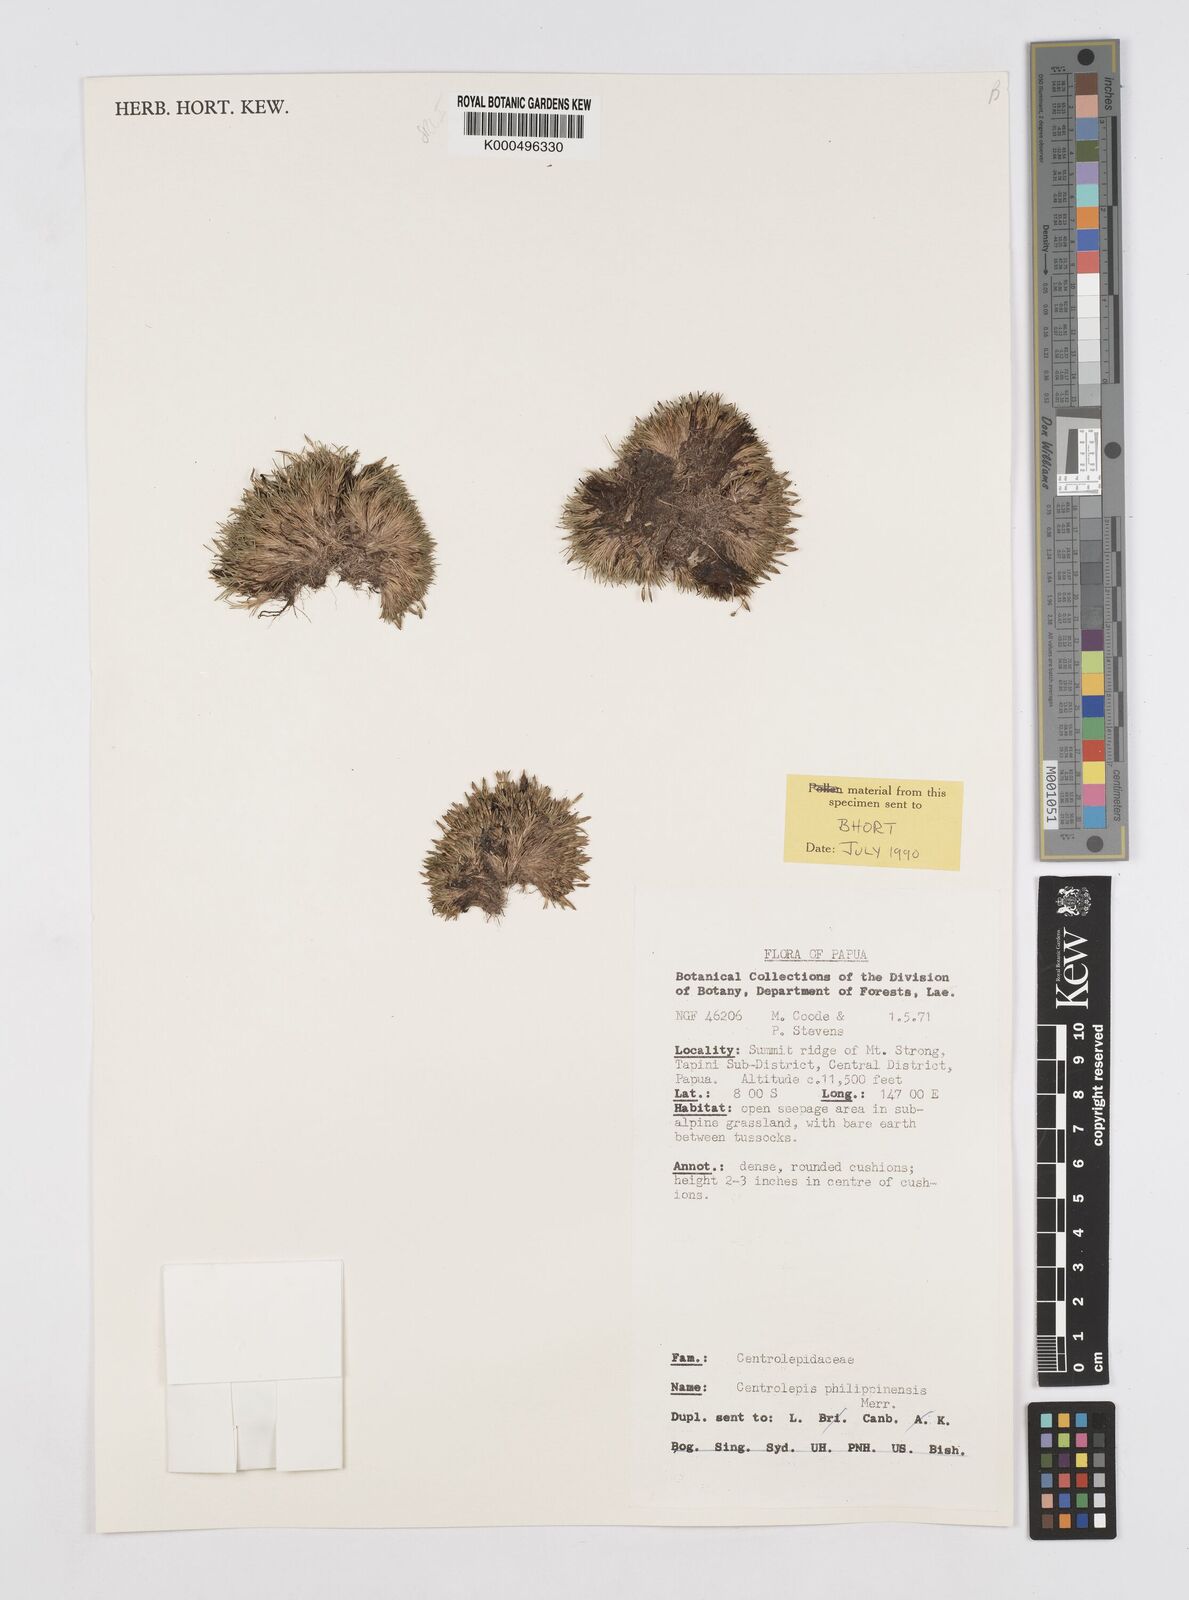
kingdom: Plantae
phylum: Tracheophyta
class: Liliopsida
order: Poales
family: Restionaceae
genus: Centrolepis
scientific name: Centrolepis philippinensis
